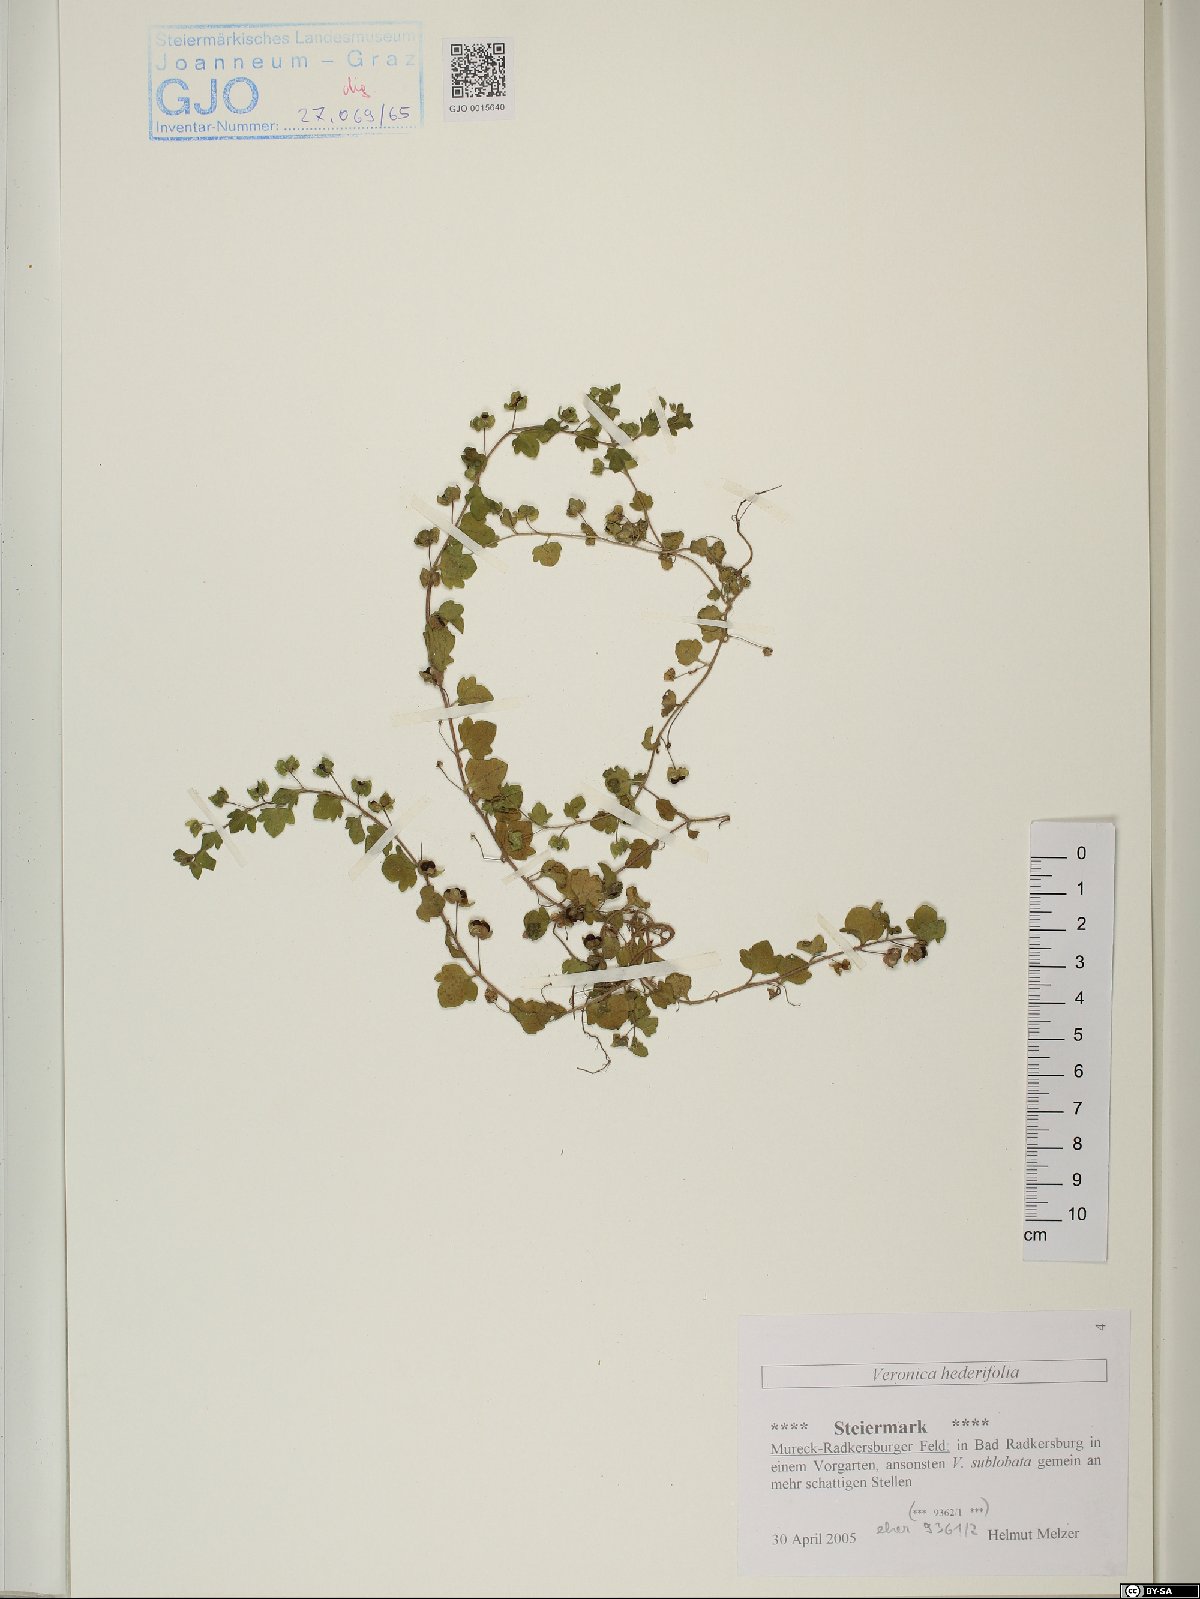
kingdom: Plantae
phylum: Tracheophyta
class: Magnoliopsida
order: Lamiales
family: Plantaginaceae
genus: Veronica
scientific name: Veronica hederifolia
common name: Ivy-leaved speedwell
